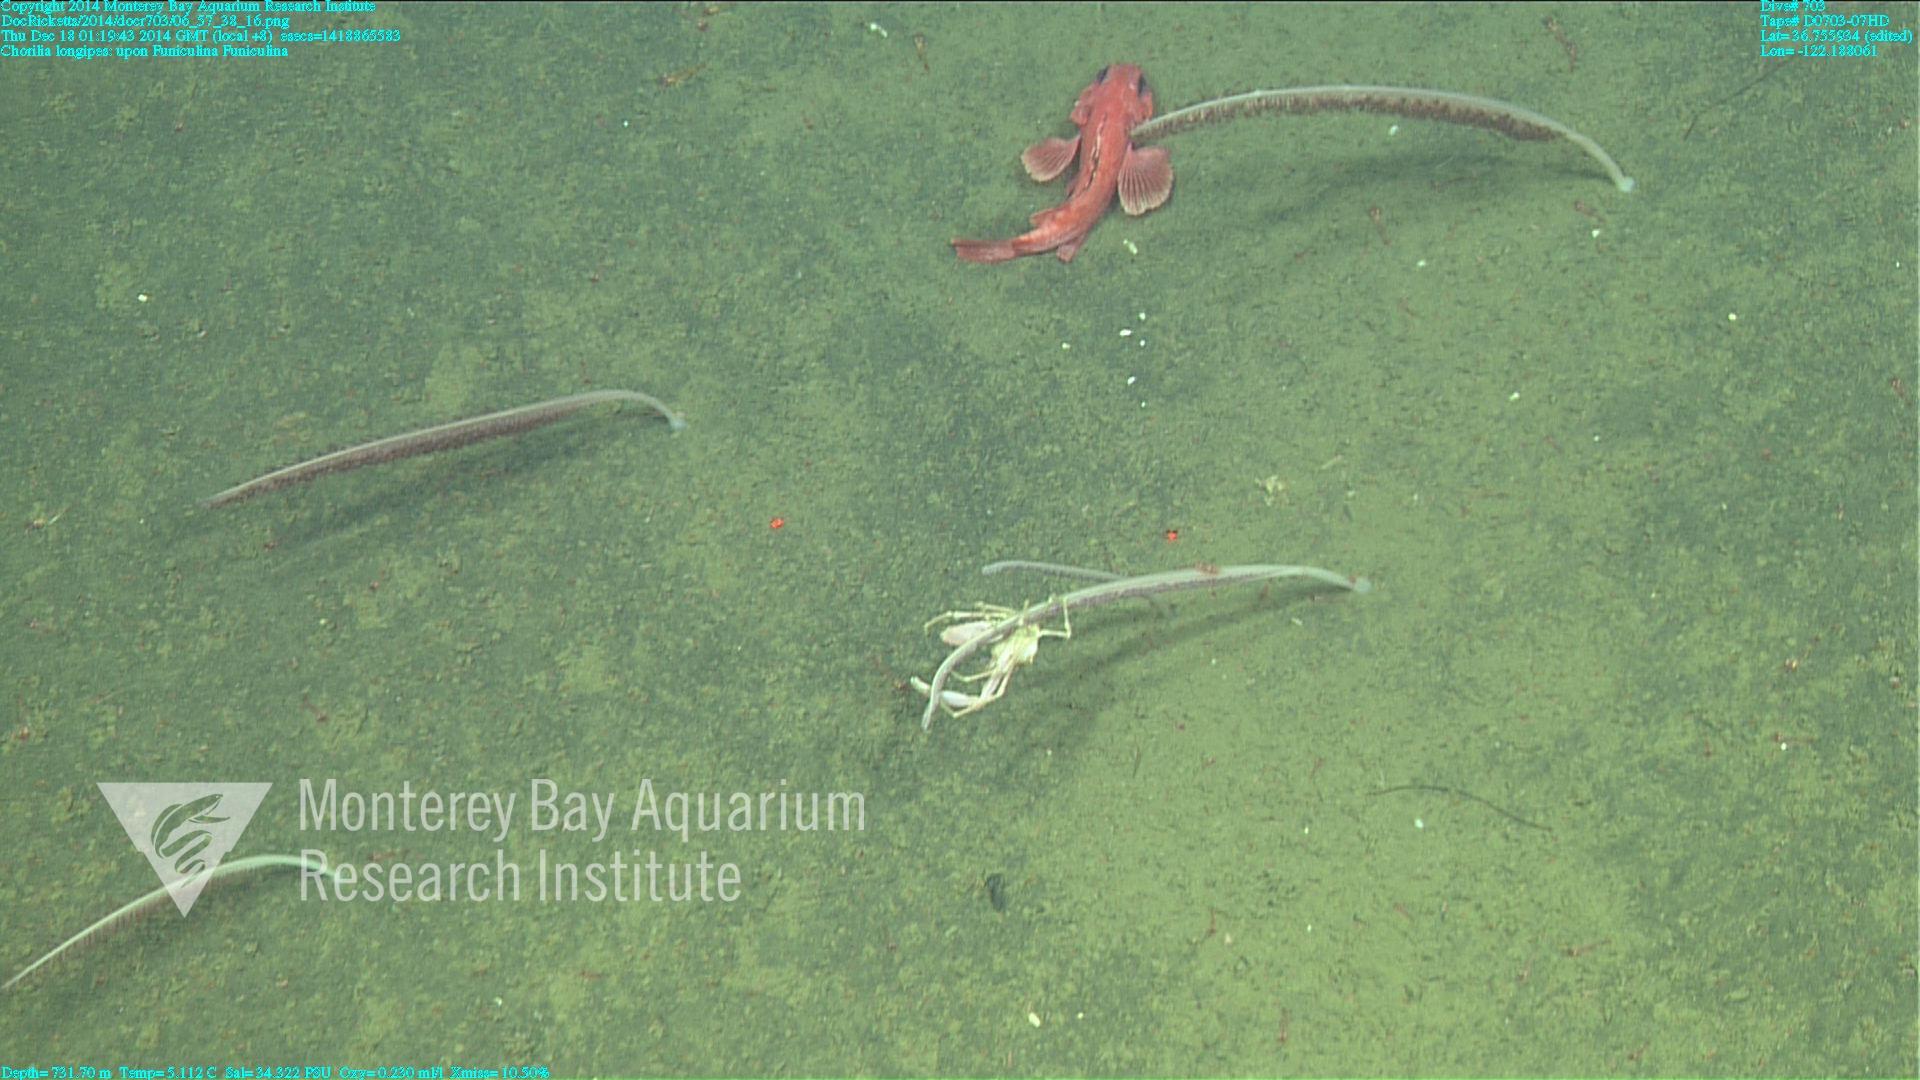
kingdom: Animalia
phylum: Cnidaria
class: Anthozoa
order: Scleralcyonacea
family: Funiculinidae
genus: Funiculina
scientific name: Funiculina
